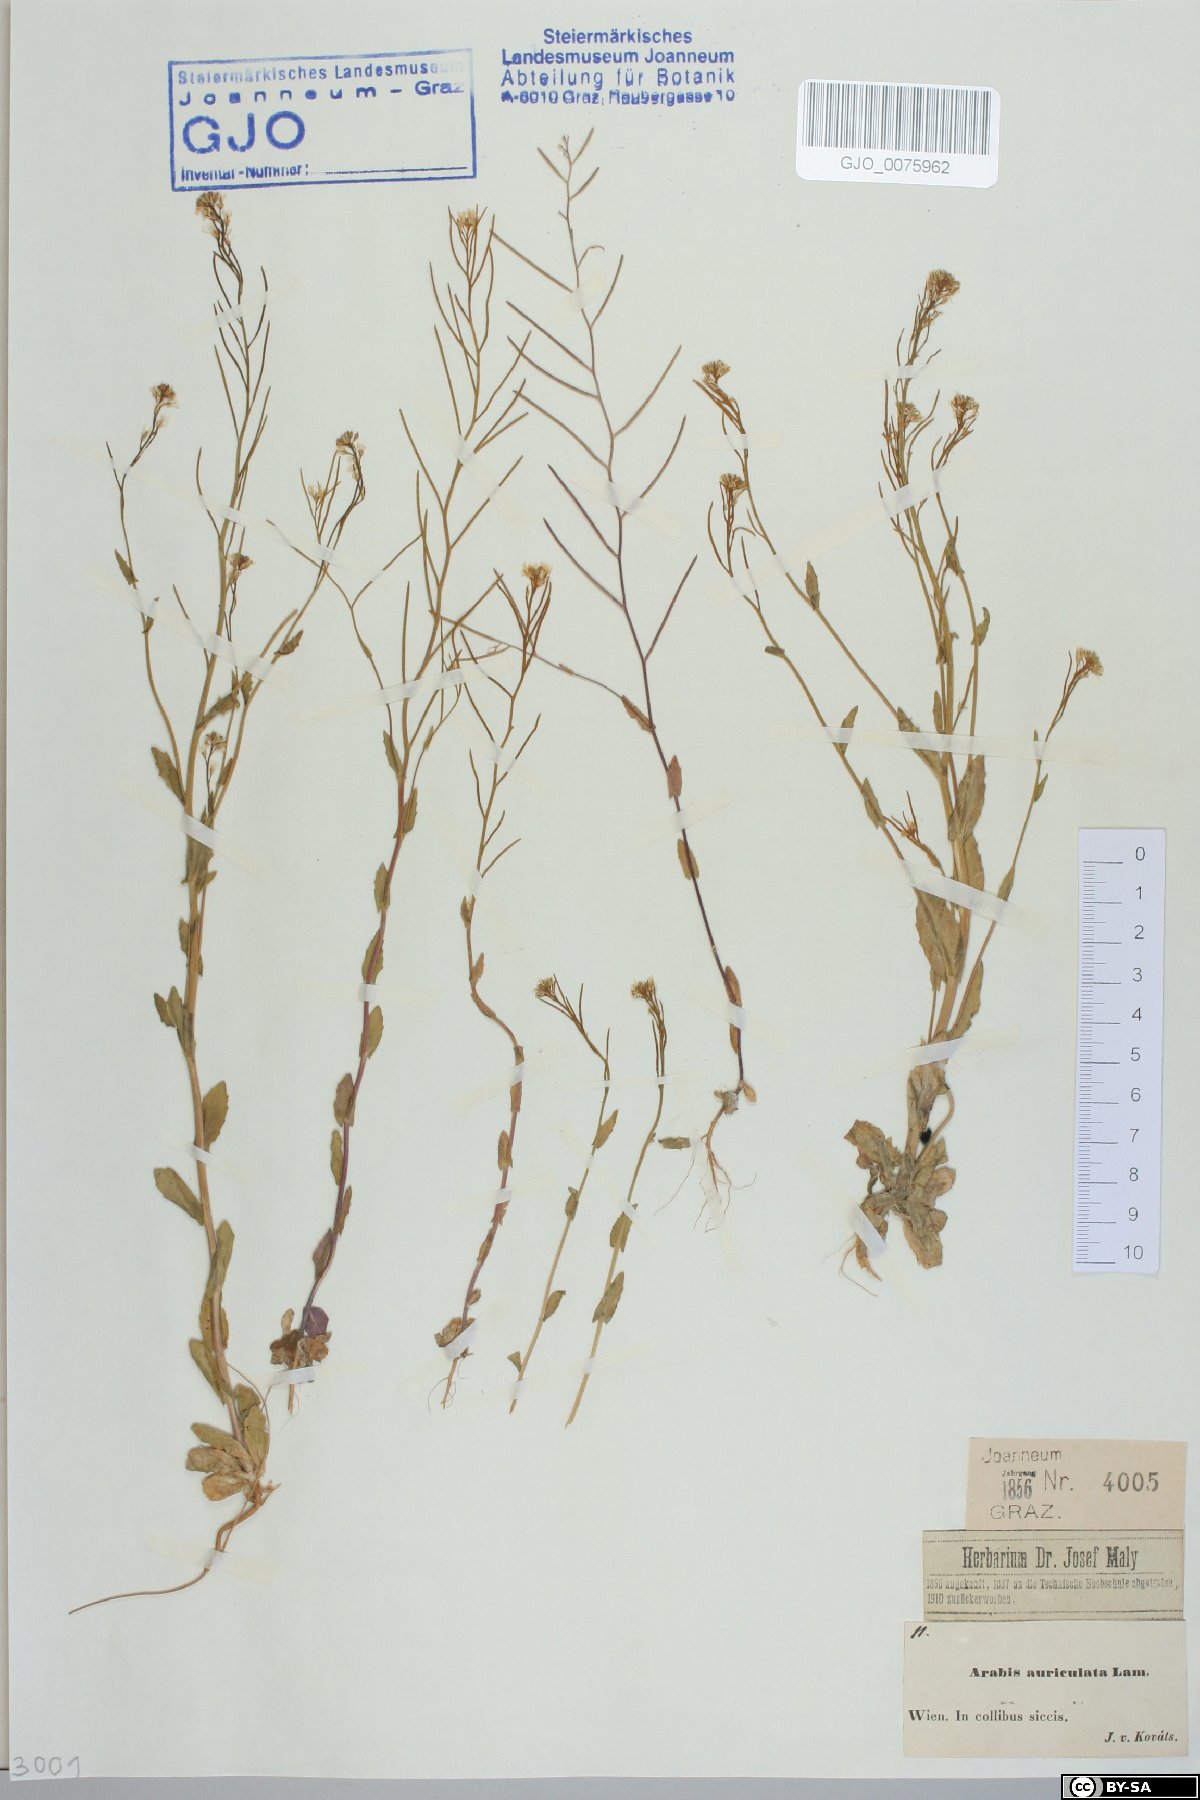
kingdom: Plantae
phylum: Tracheophyta
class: Magnoliopsida
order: Brassicales
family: Brassicaceae
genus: Arabis
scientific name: Arabis auriculata
